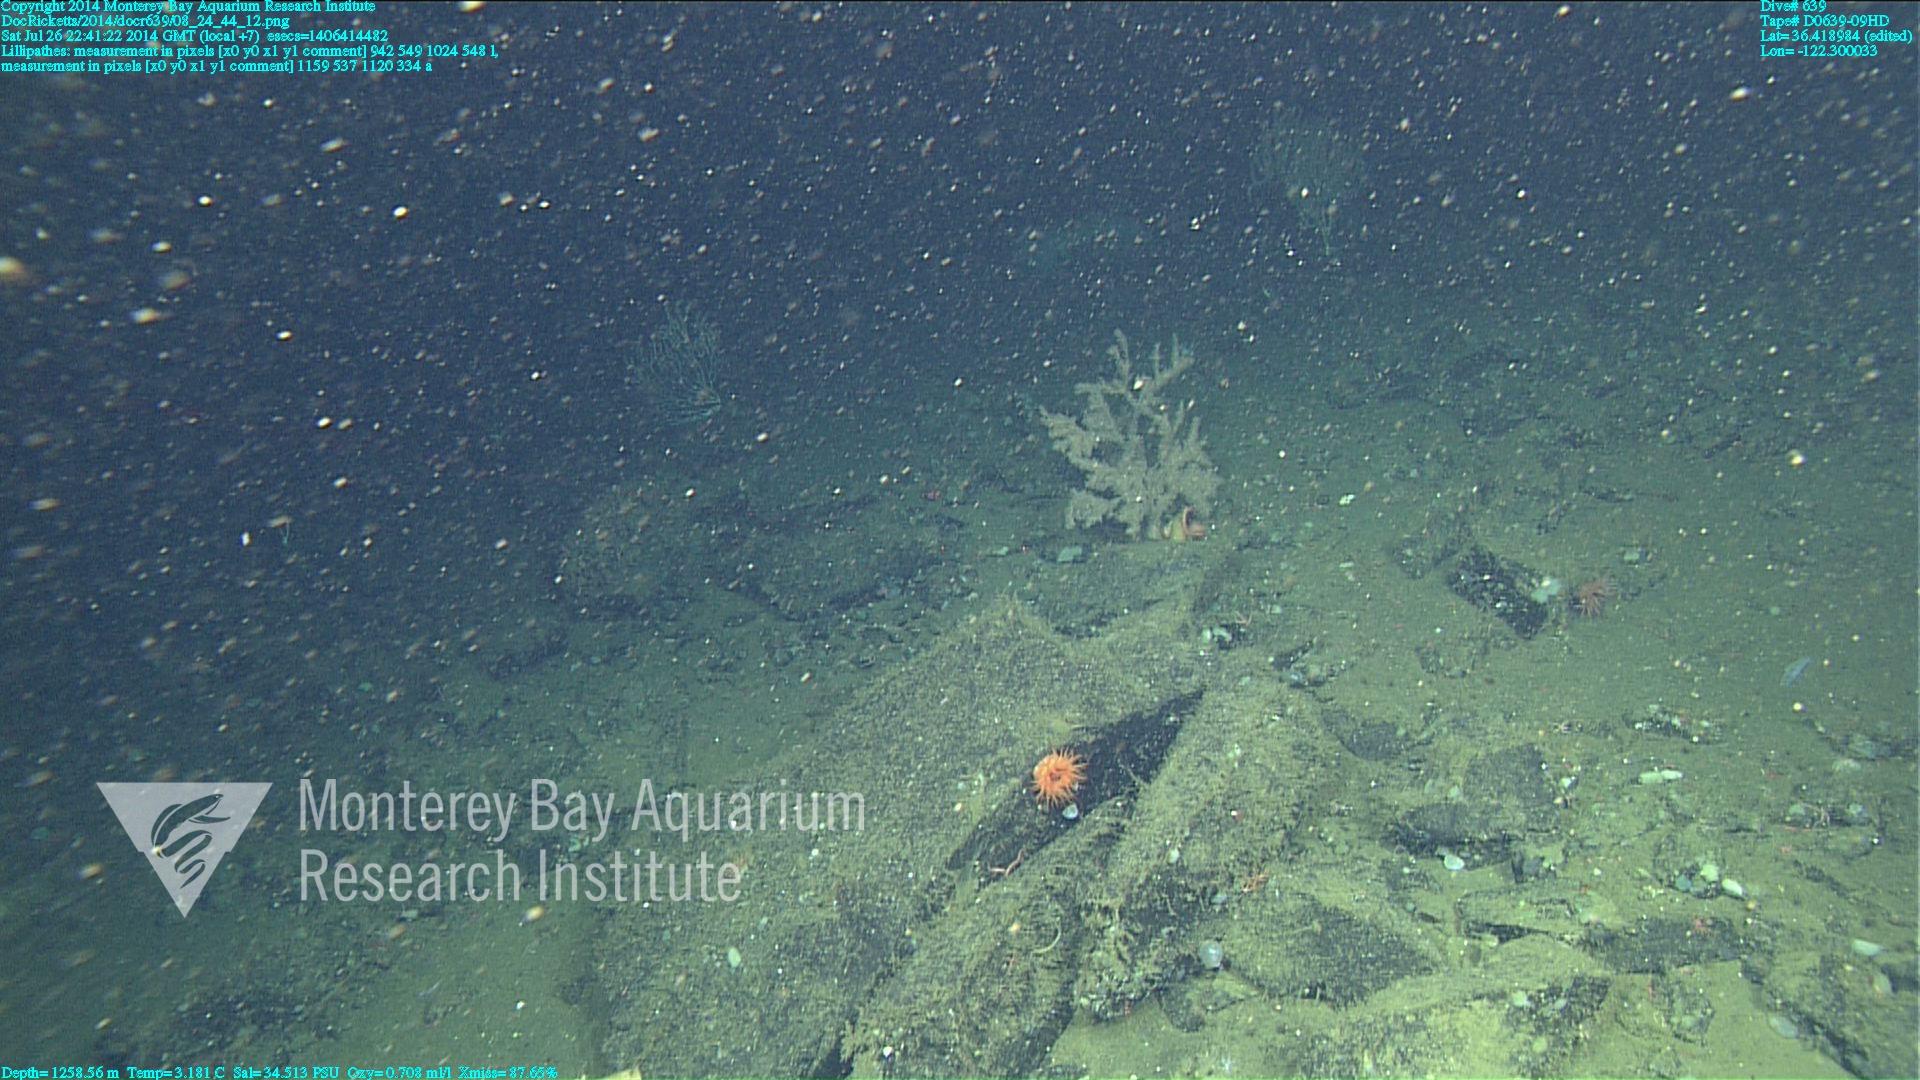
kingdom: Animalia
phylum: Cnidaria
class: Anthozoa
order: Antipatharia
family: Schizopathidae
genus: Lillipathes
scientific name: Lillipathes
